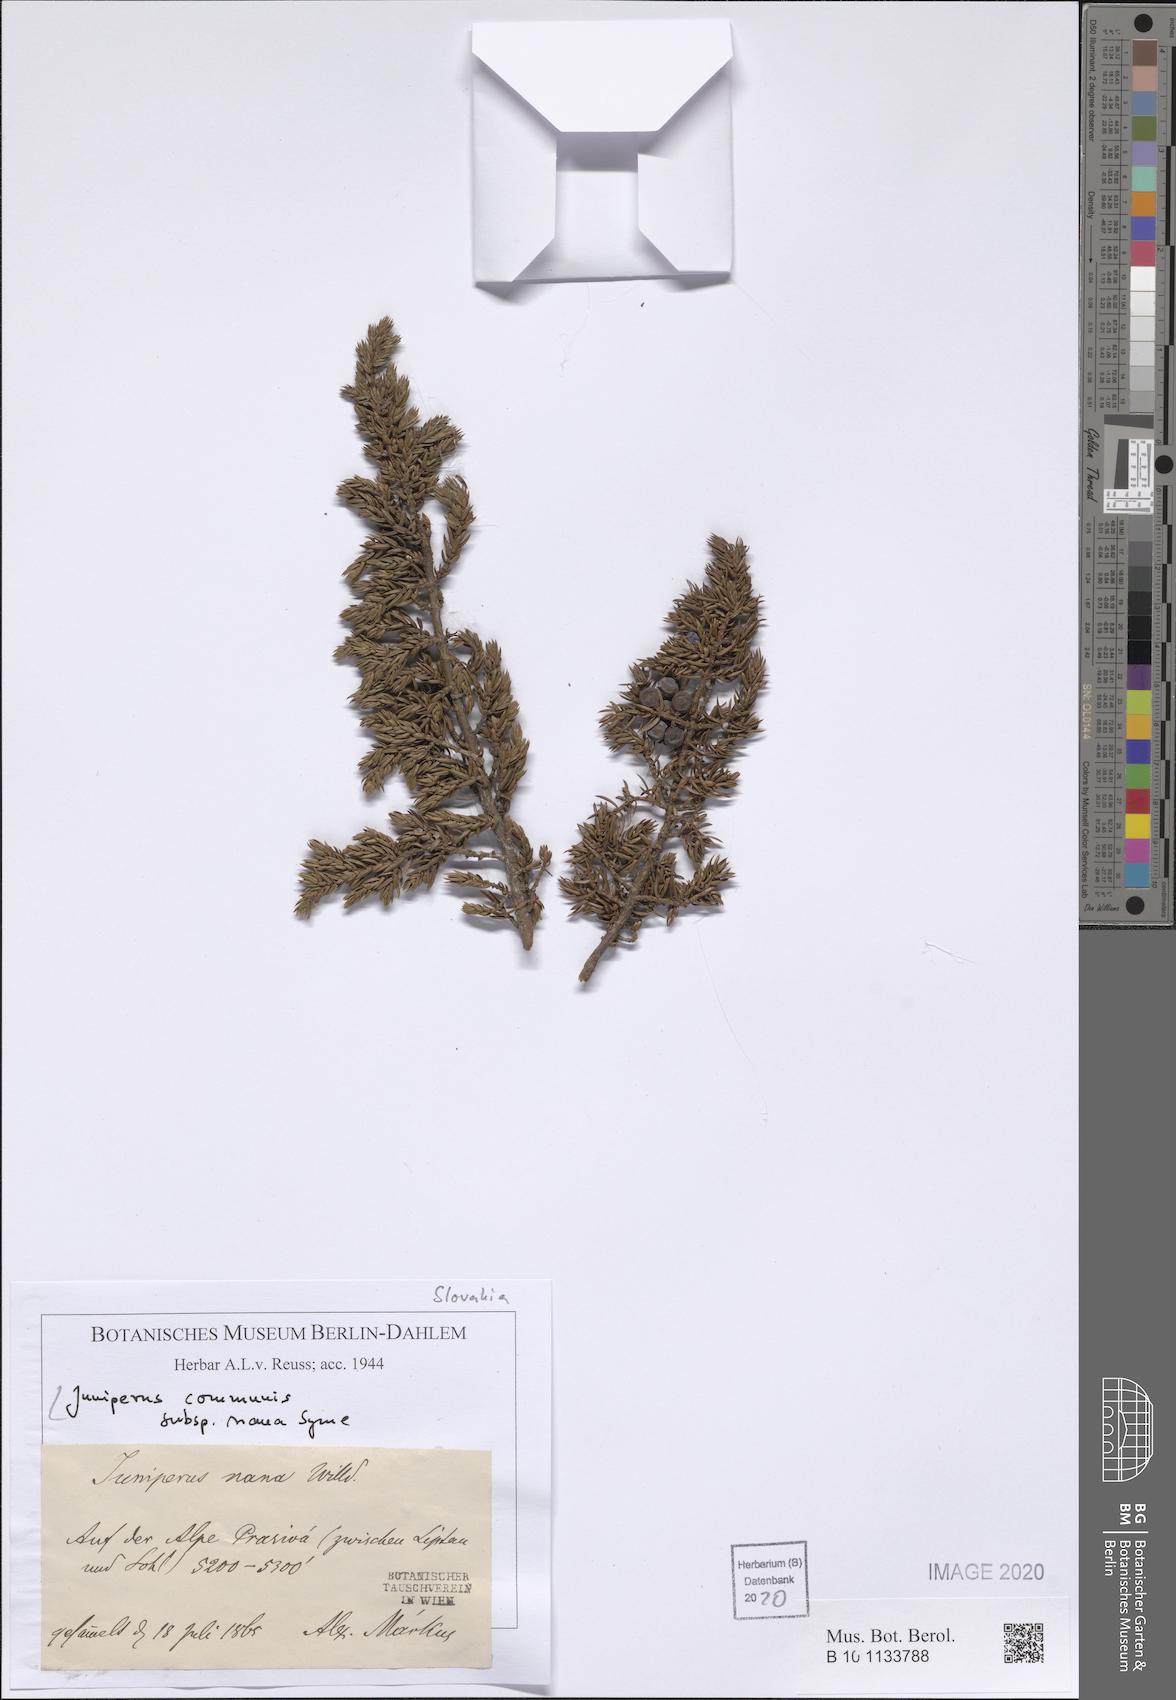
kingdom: Plantae
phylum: Tracheophyta
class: Pinopsida
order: Pinales
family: Cupressaceae
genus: Juniperus
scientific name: Juniperus communis
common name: Common juniper
